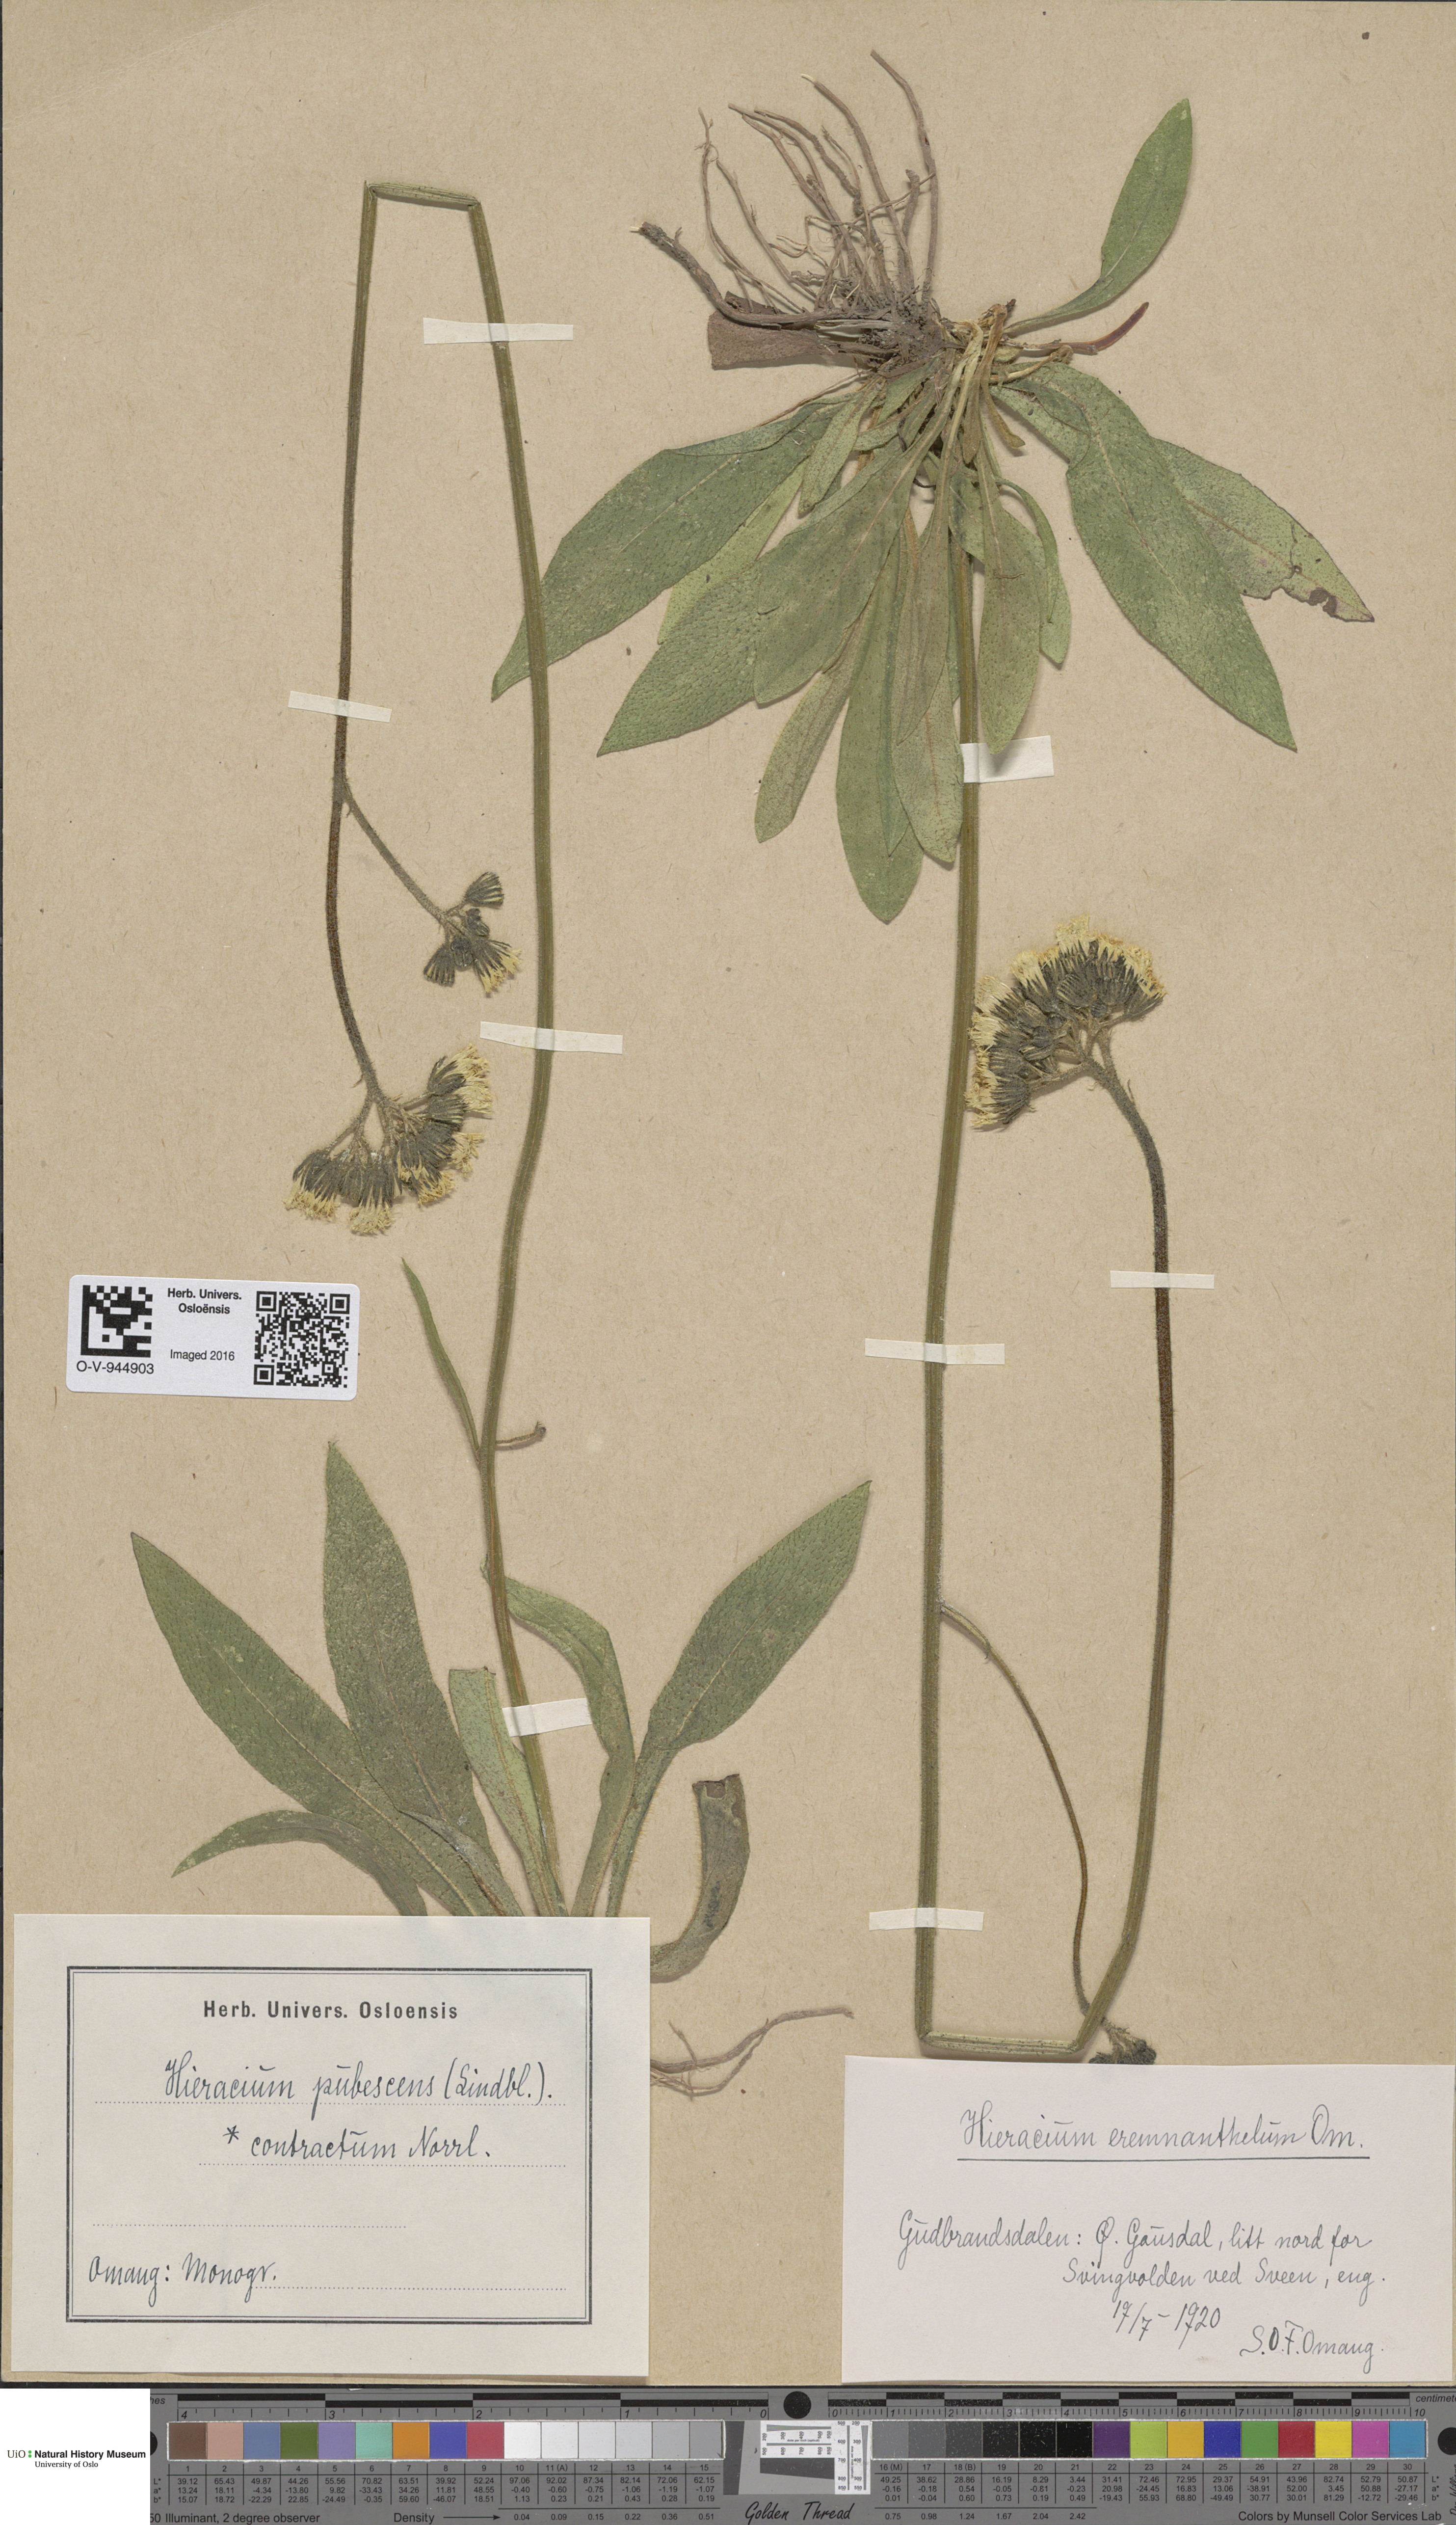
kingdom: Plantae
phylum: Tracheophyta
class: Magnoliopsida
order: Asterales
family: Asteraceae
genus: Pilosella
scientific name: Pilosella cymosa
